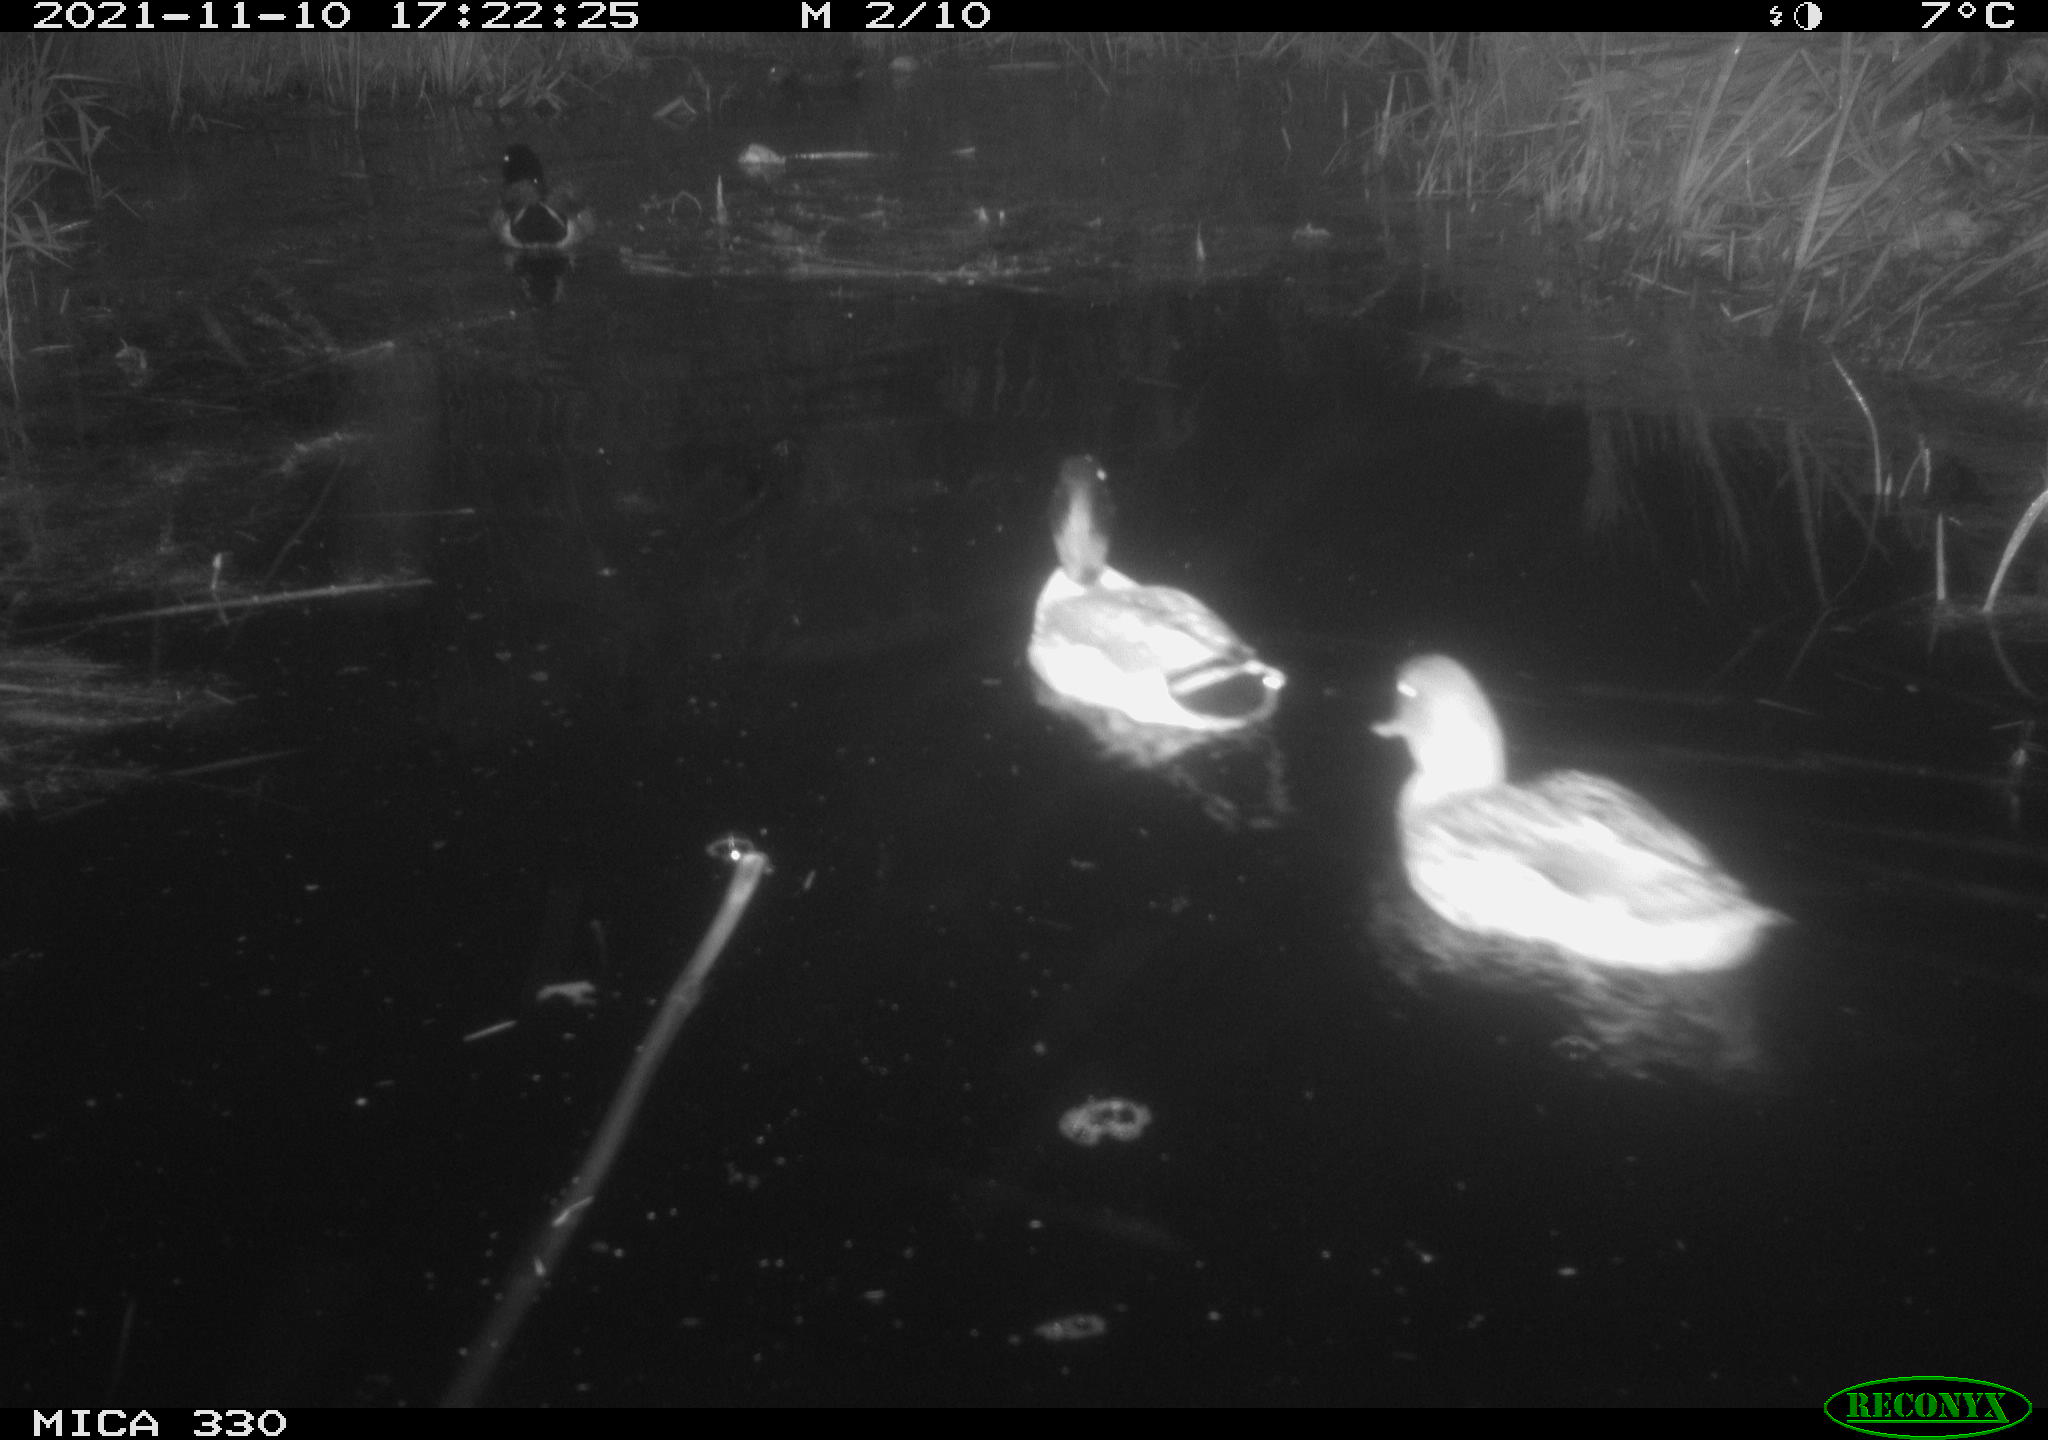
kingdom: Animalia
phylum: Chordata
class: Aves
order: Anseriformes
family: Anatidae
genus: Anas
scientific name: Anas platyrhynchos
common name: Mallard
